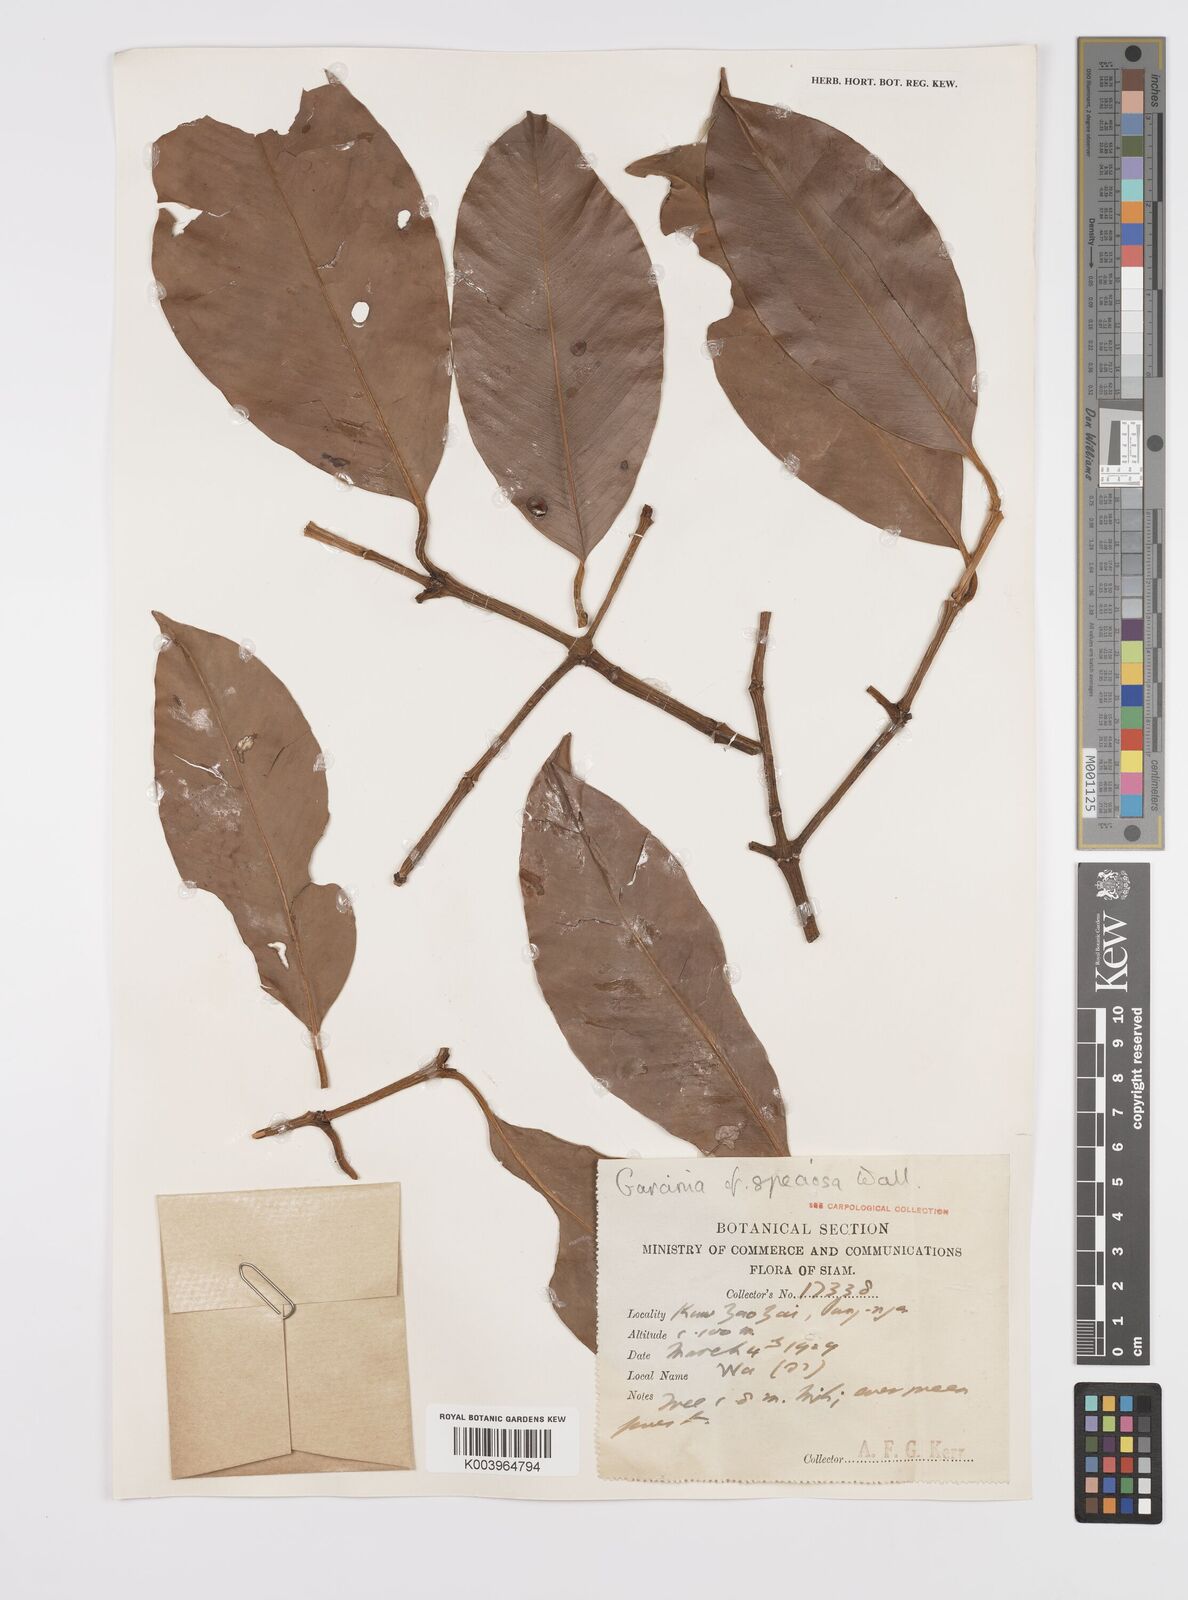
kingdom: Plantae
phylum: Tracheophyta
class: Magnoliopsida
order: Malpighiales
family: Clusiaceae
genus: Garcinia
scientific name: Garcinia celebica
